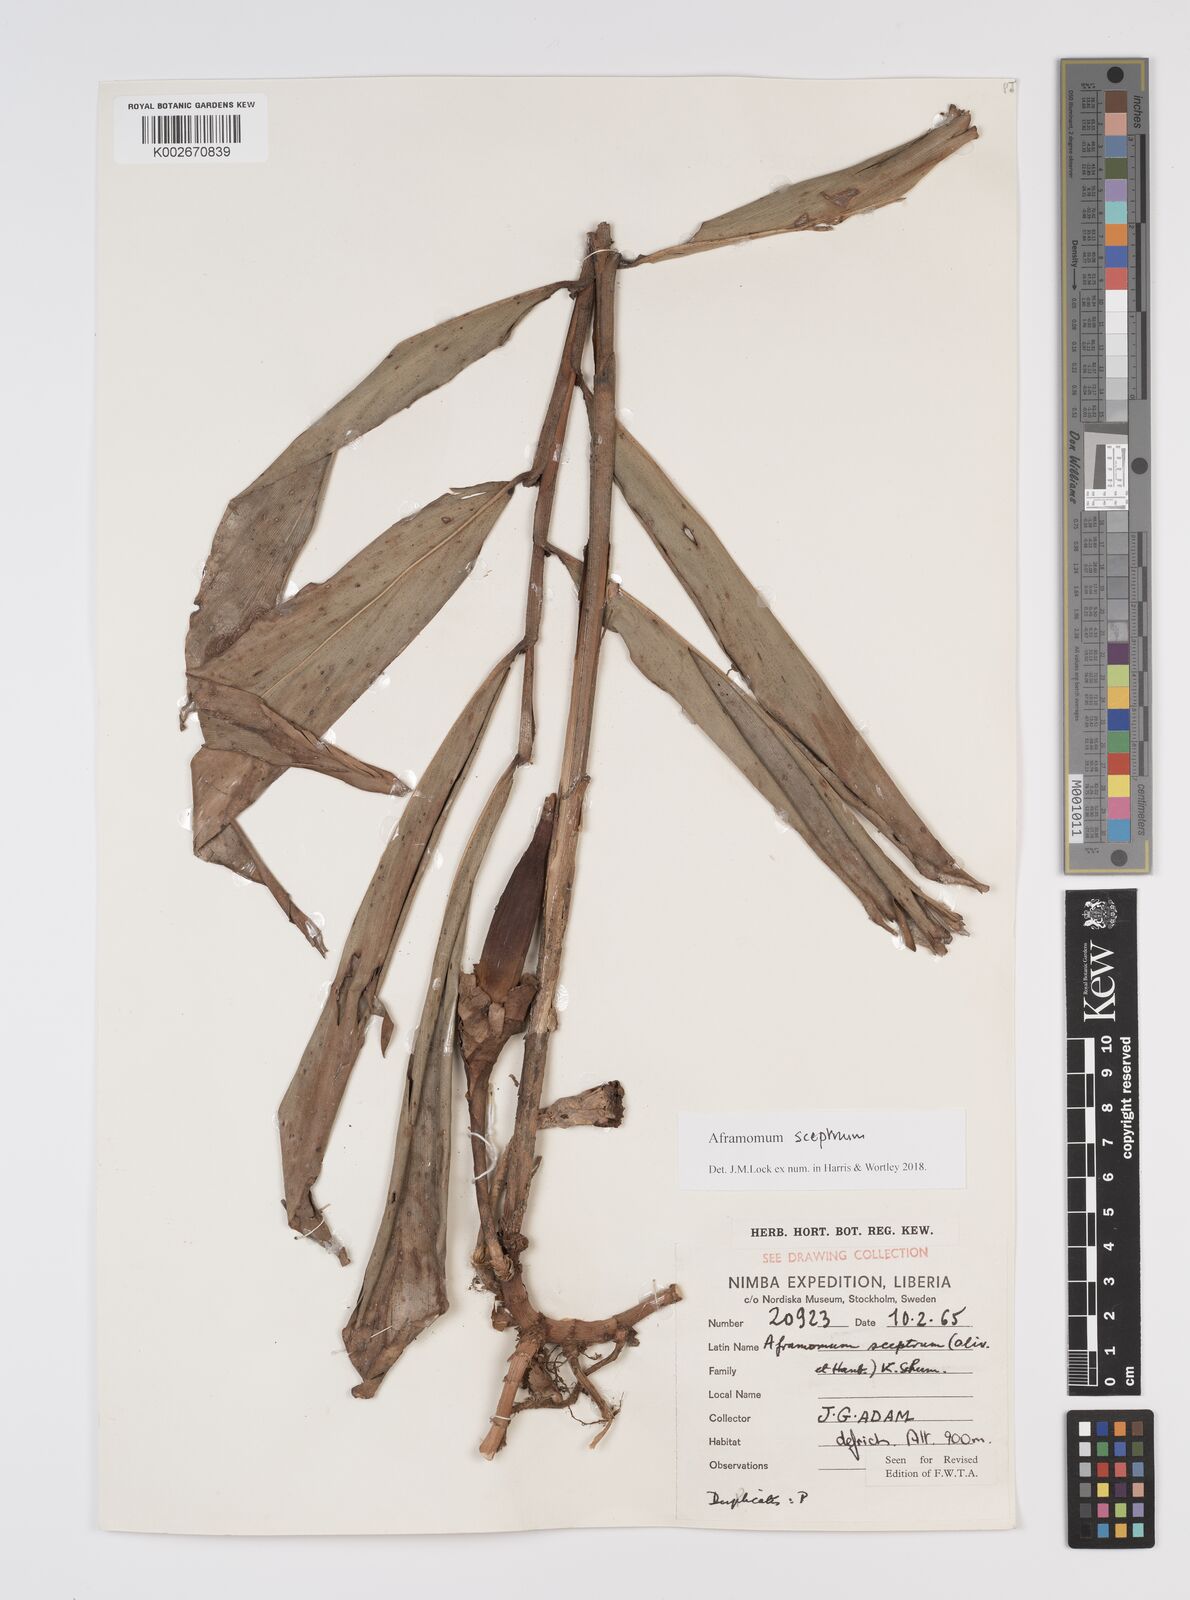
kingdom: Plantae
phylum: Tracheophyta
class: Liliopsida
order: Zingiberales
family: Zingiberaceae
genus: Aframomum
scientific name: Aframomum cereum
